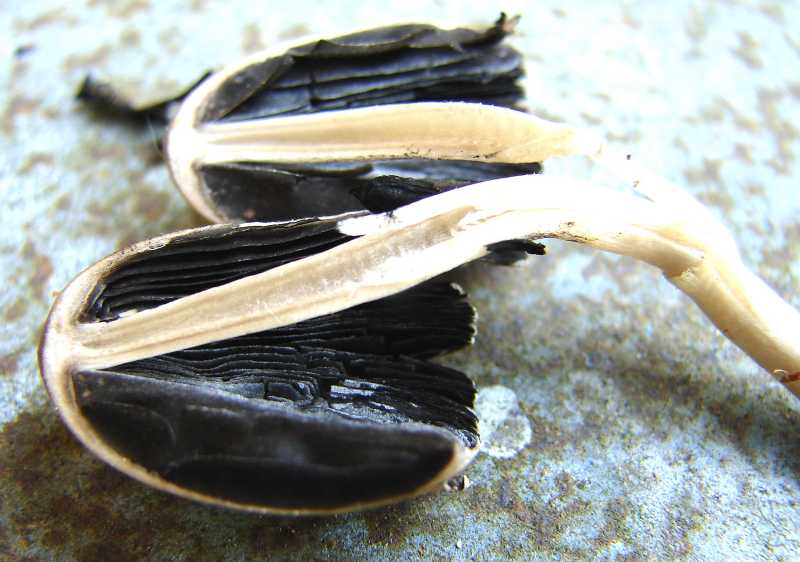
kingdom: Fungi
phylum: Basidiomycota
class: Agaricomycetes
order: Agaricales
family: Psathyrellaceae
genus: Coprinopsis
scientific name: Coprinopsis echinospora
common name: fuglemøg-blækhat
